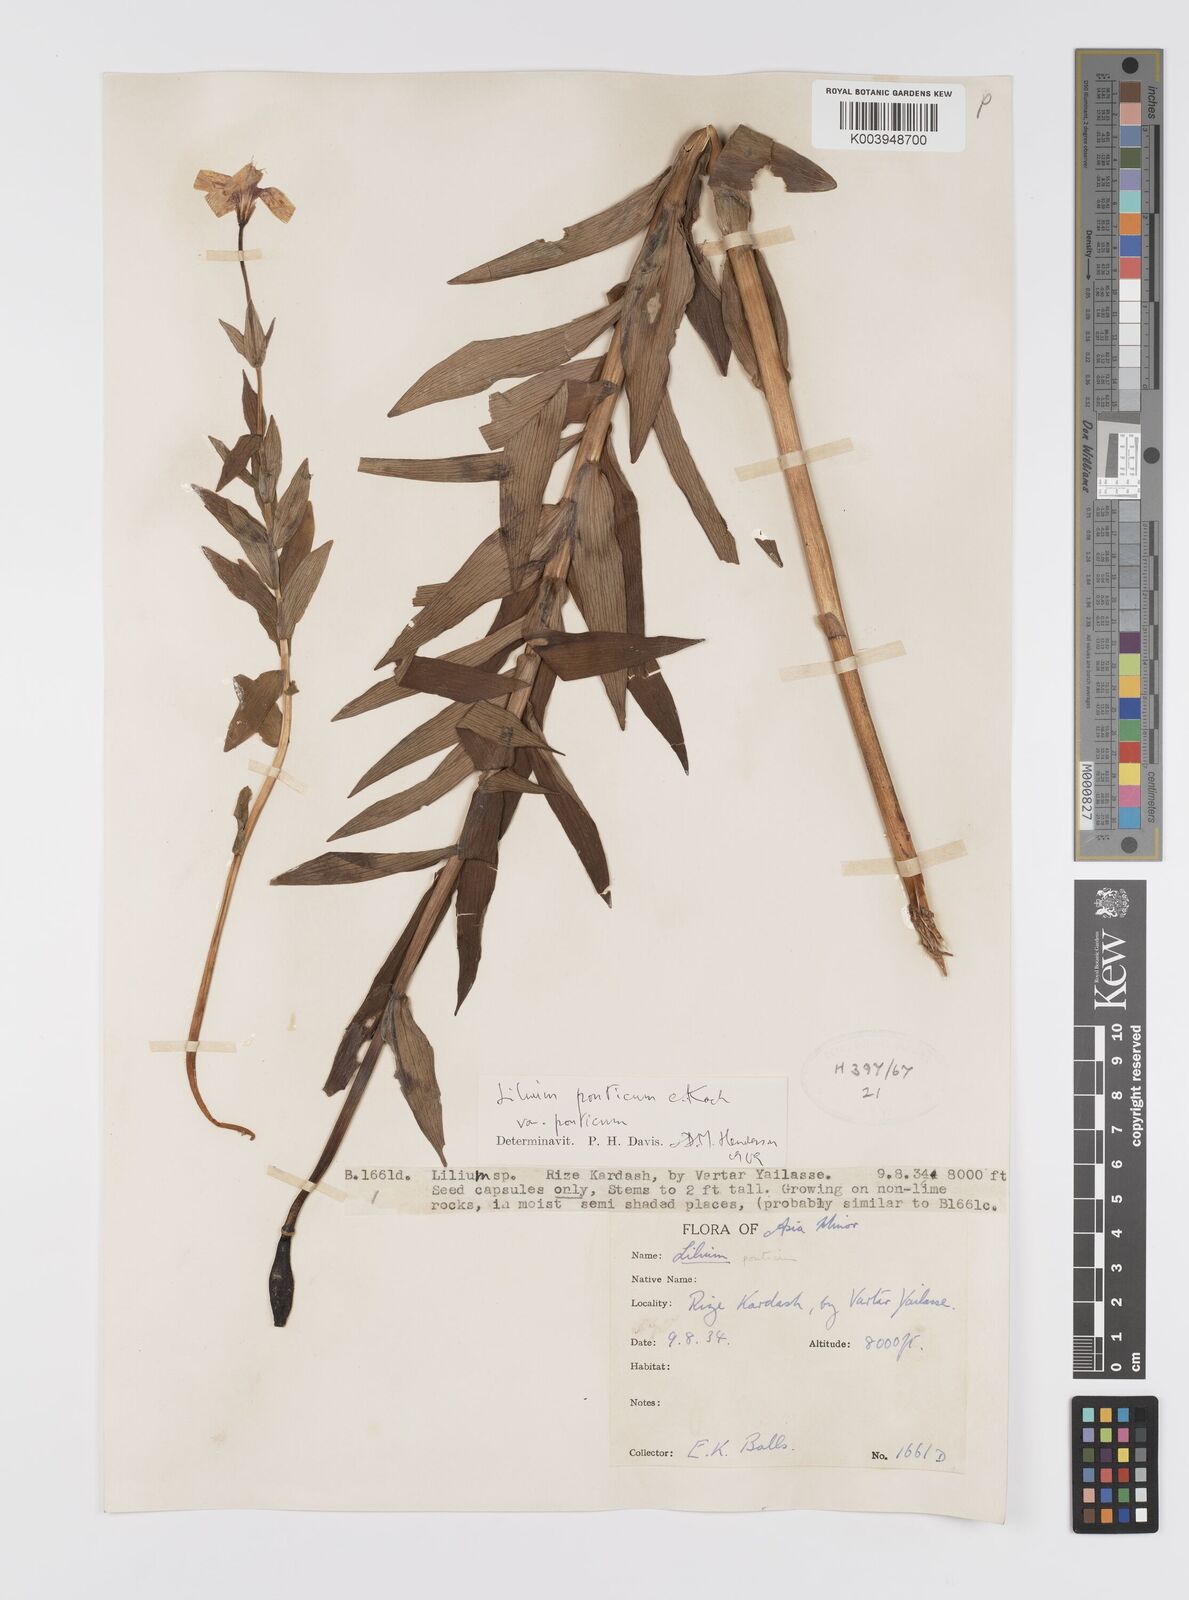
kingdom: Plantae
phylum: Tracheophyta
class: Liliopsida
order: Liliales
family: Liliaceae
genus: Lilium
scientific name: Lilium ponticum
